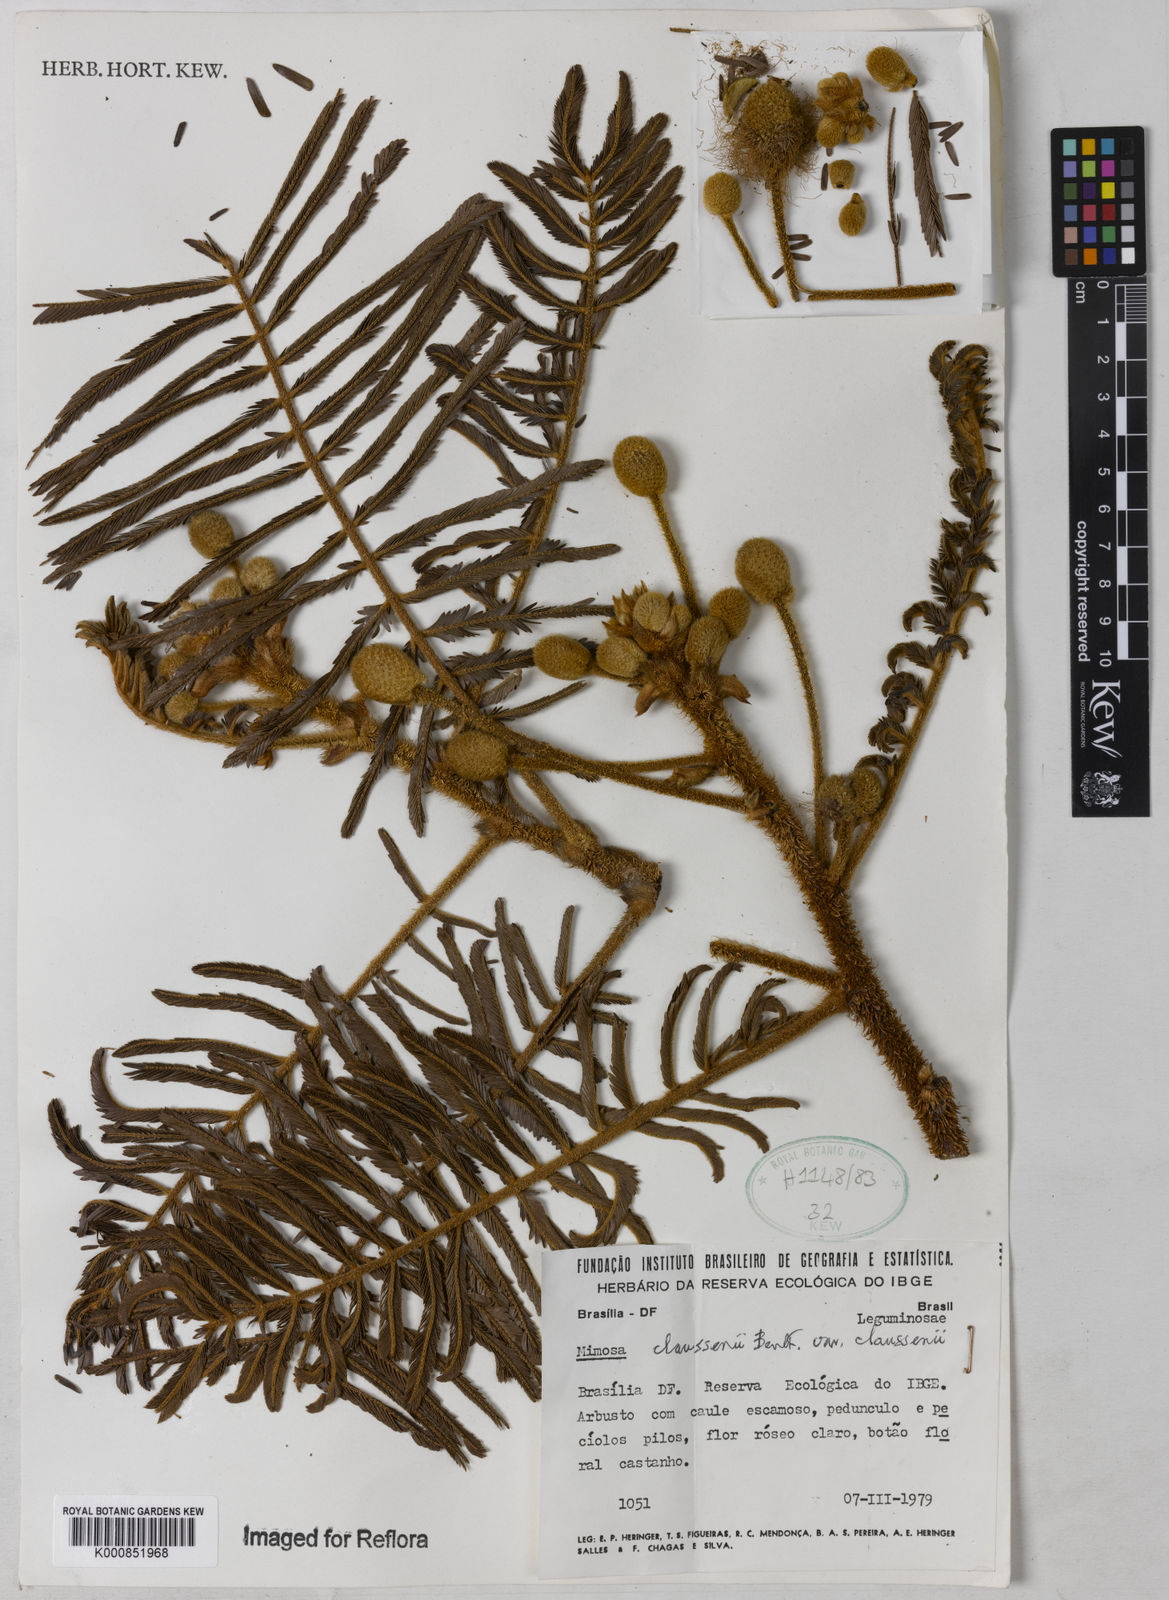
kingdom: Plantae
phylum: Tracheophyta
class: Magnoliopsida
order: Fabales
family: Fabaceae
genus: Mimosa
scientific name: Mimosa claussenii
